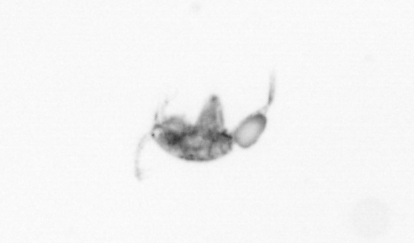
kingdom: Animalia
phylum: Arthropoda
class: Copepoda
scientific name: Copepoda
